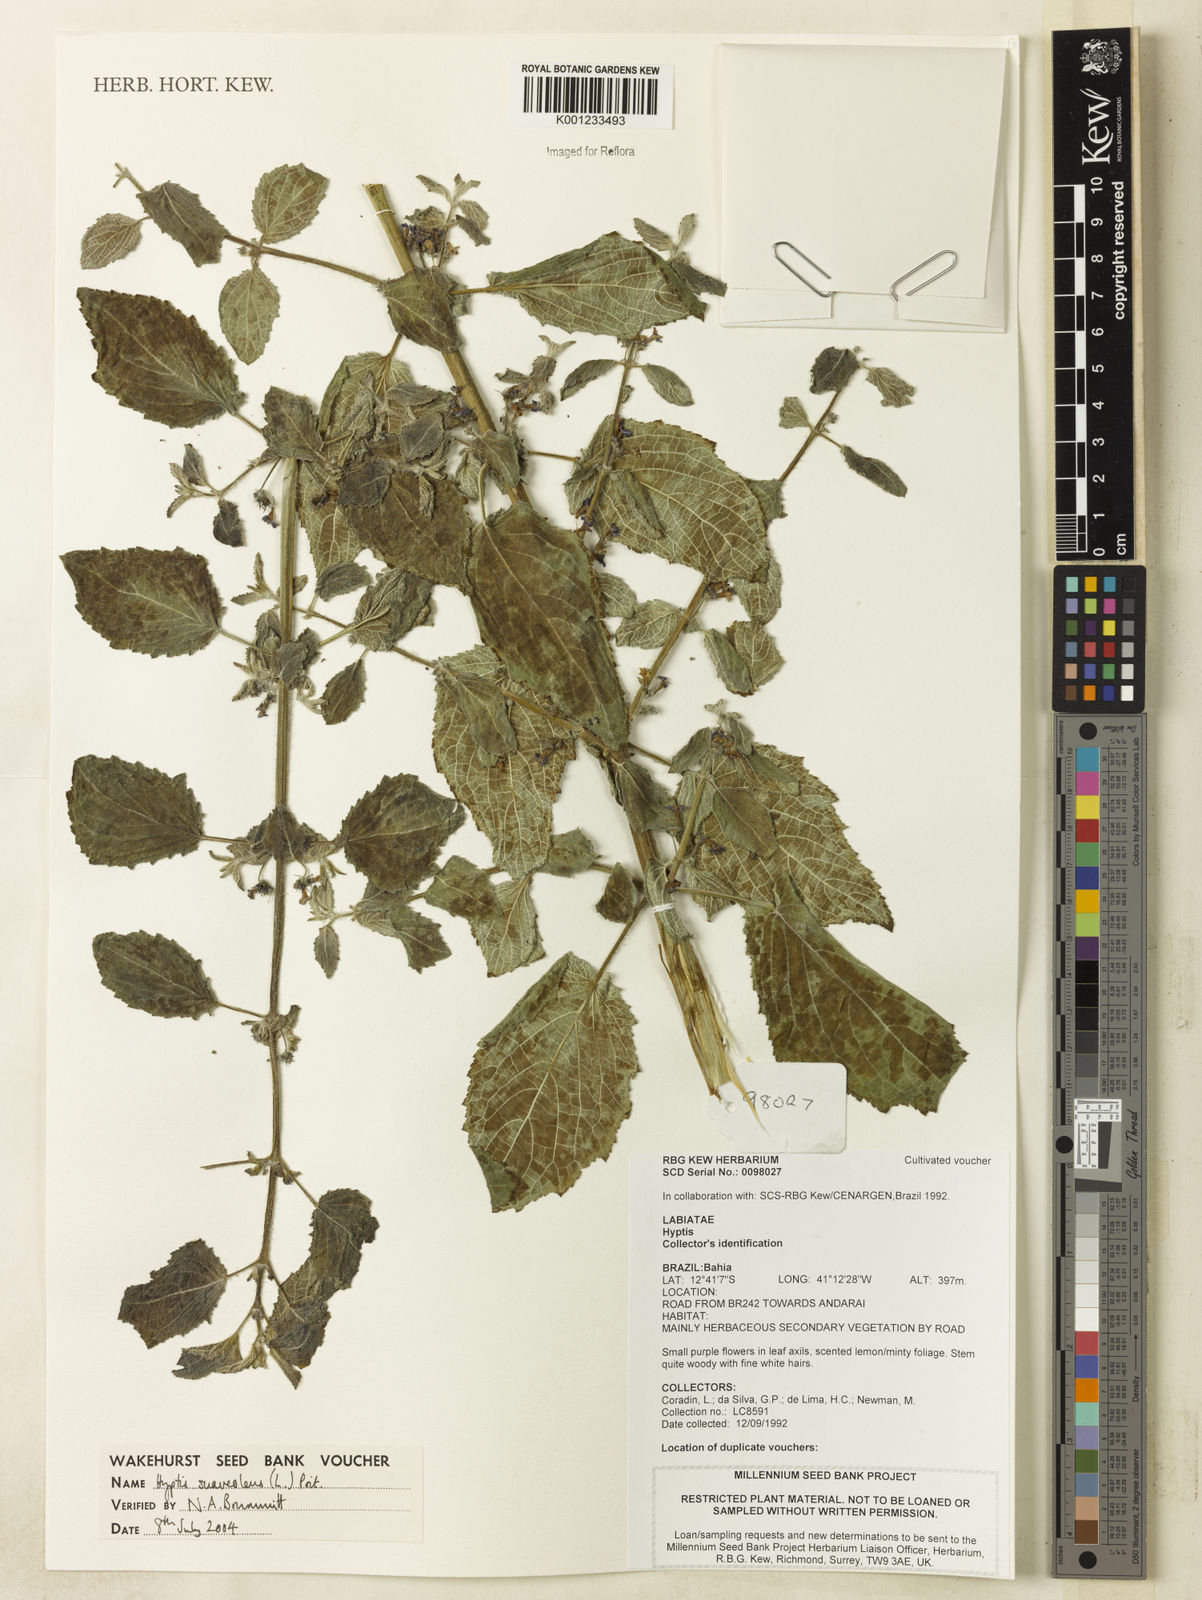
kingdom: Plantae
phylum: Tracheophyta
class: Magnoliopsida
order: Lamiales
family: Lamiaceae
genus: Mesosphaerum
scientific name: Mesosphaerum suaveolens
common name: Pignut
